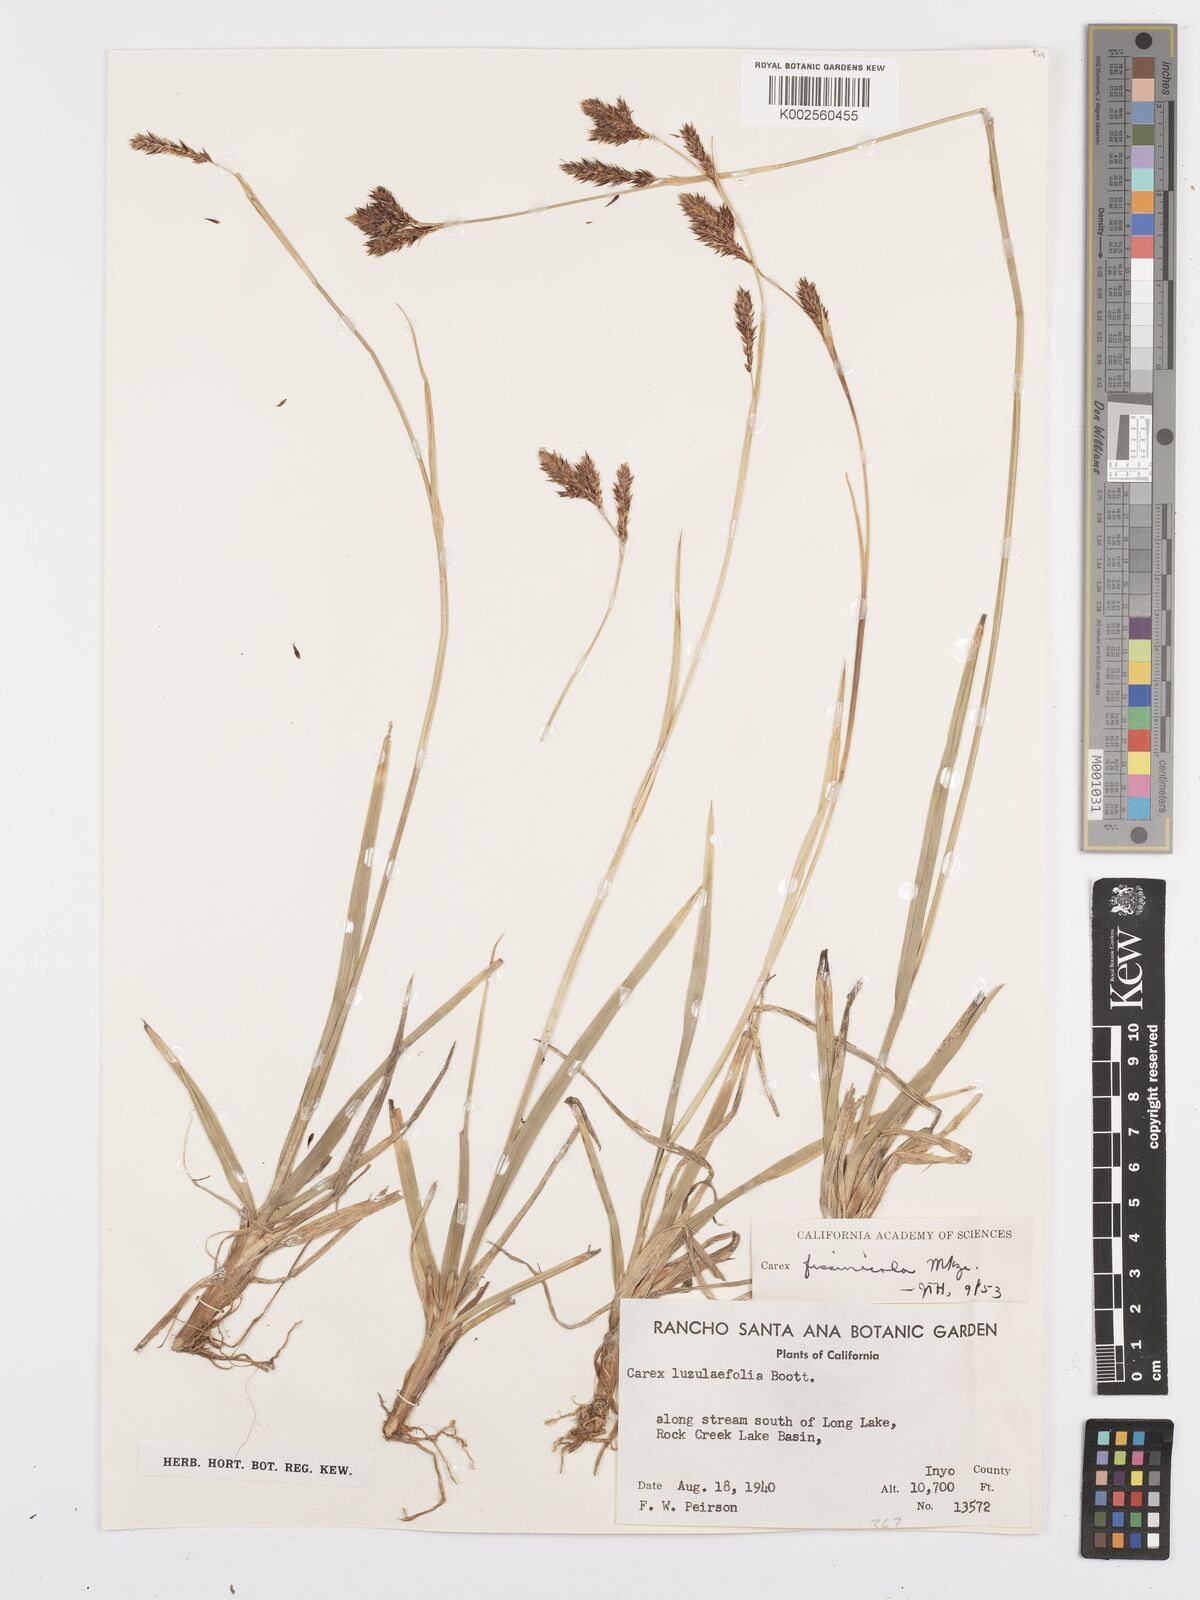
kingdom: Plantae
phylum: Tracheophyta
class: Liliopsida
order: Poales
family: Cyperaceae
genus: Carex
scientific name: Carex luzulifolia
